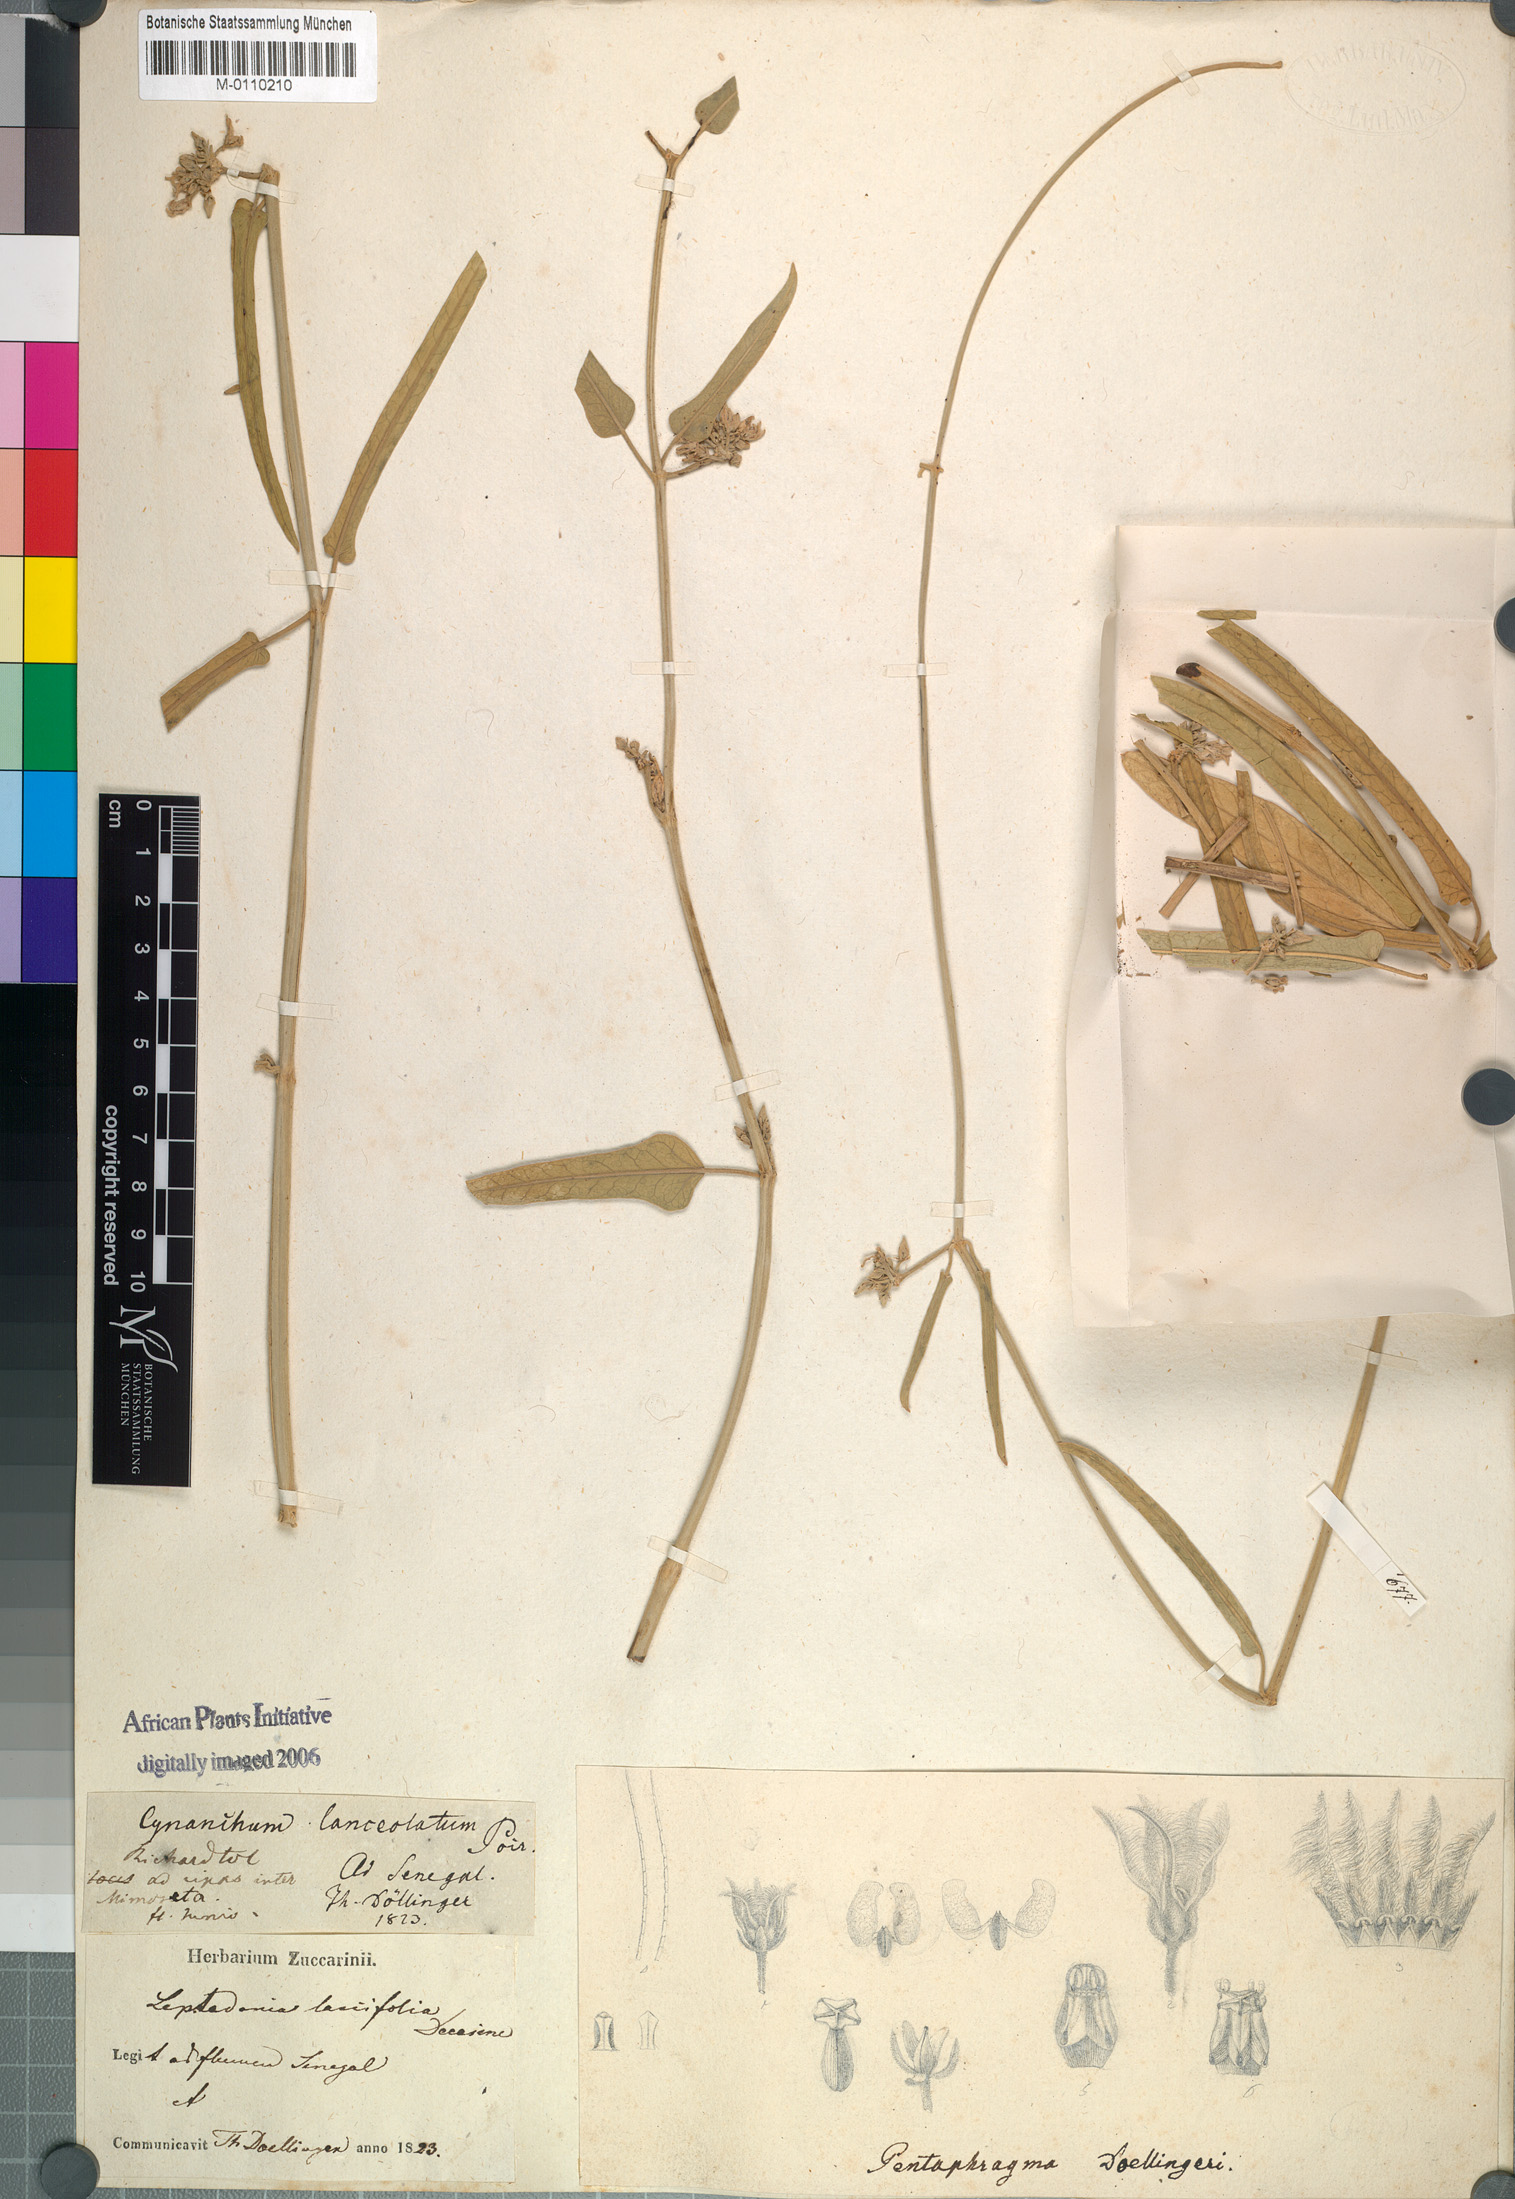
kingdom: Plantae
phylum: Tracheophyta
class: Magnoliopsida
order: Gentianales
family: Apocynaceae
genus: Leptadenia
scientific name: Leptadenia lanceolata
